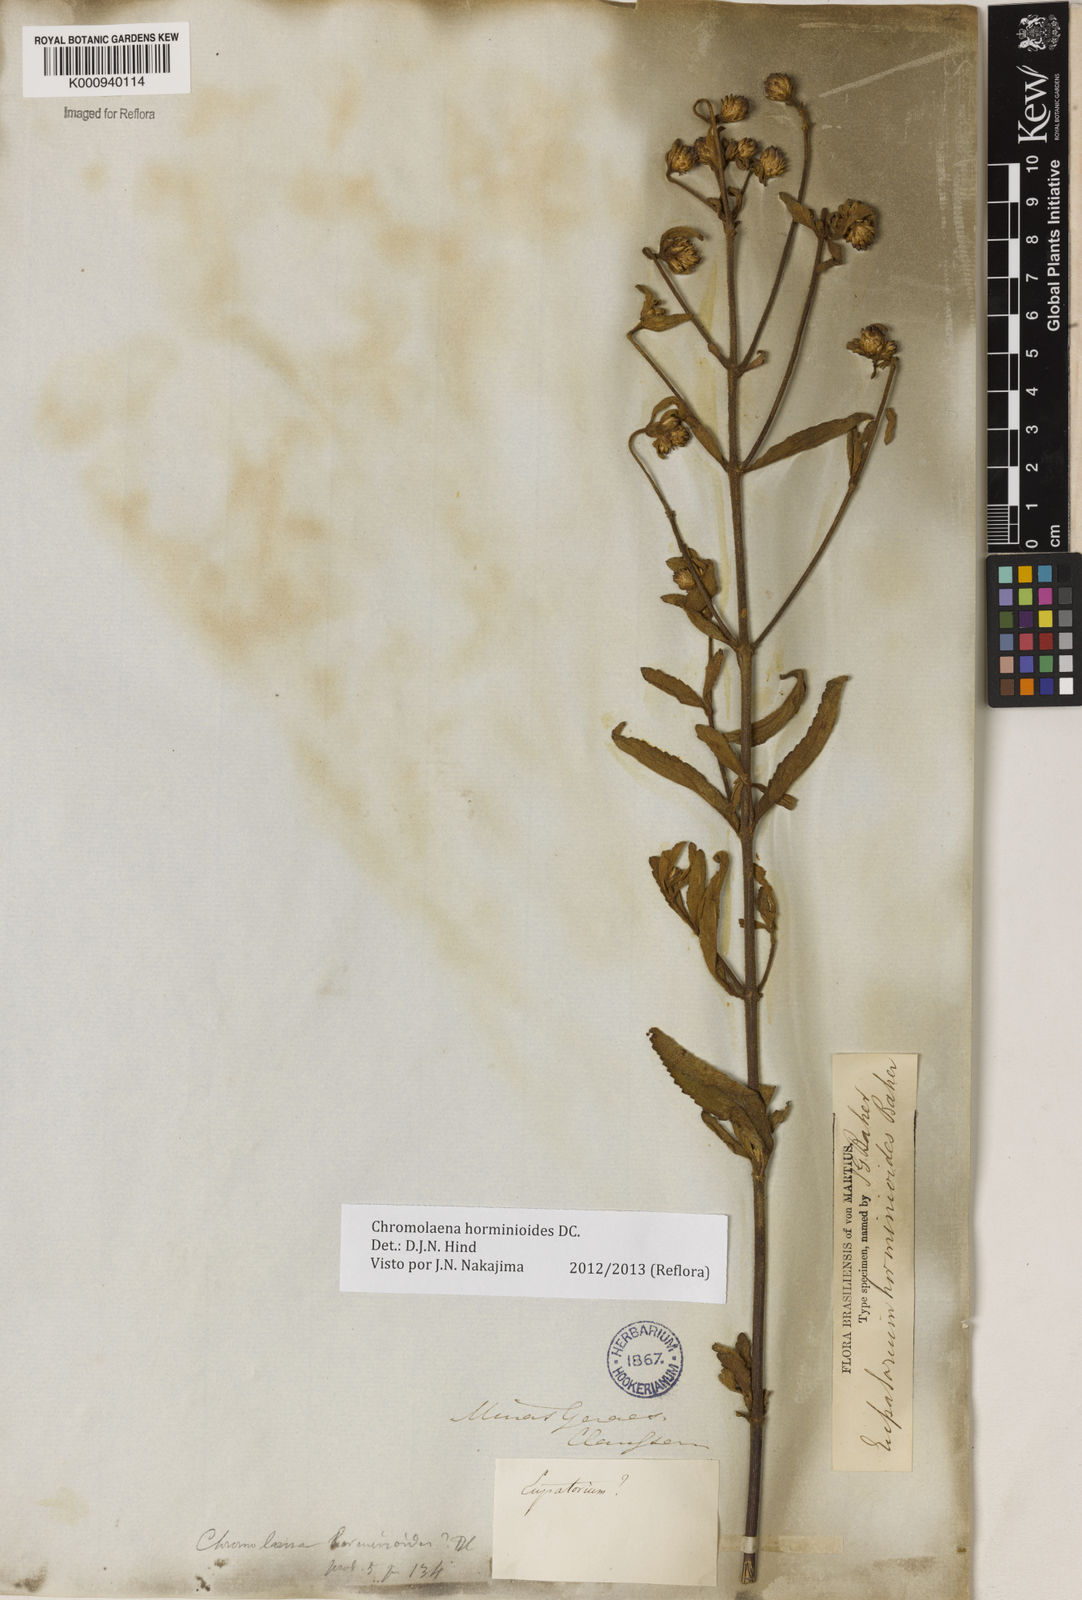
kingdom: Plantae
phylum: Tracheophyta
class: Magnoliopsida
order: Asterales
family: Asteraceae
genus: Chromolaena
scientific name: Chromolaena horminoides
